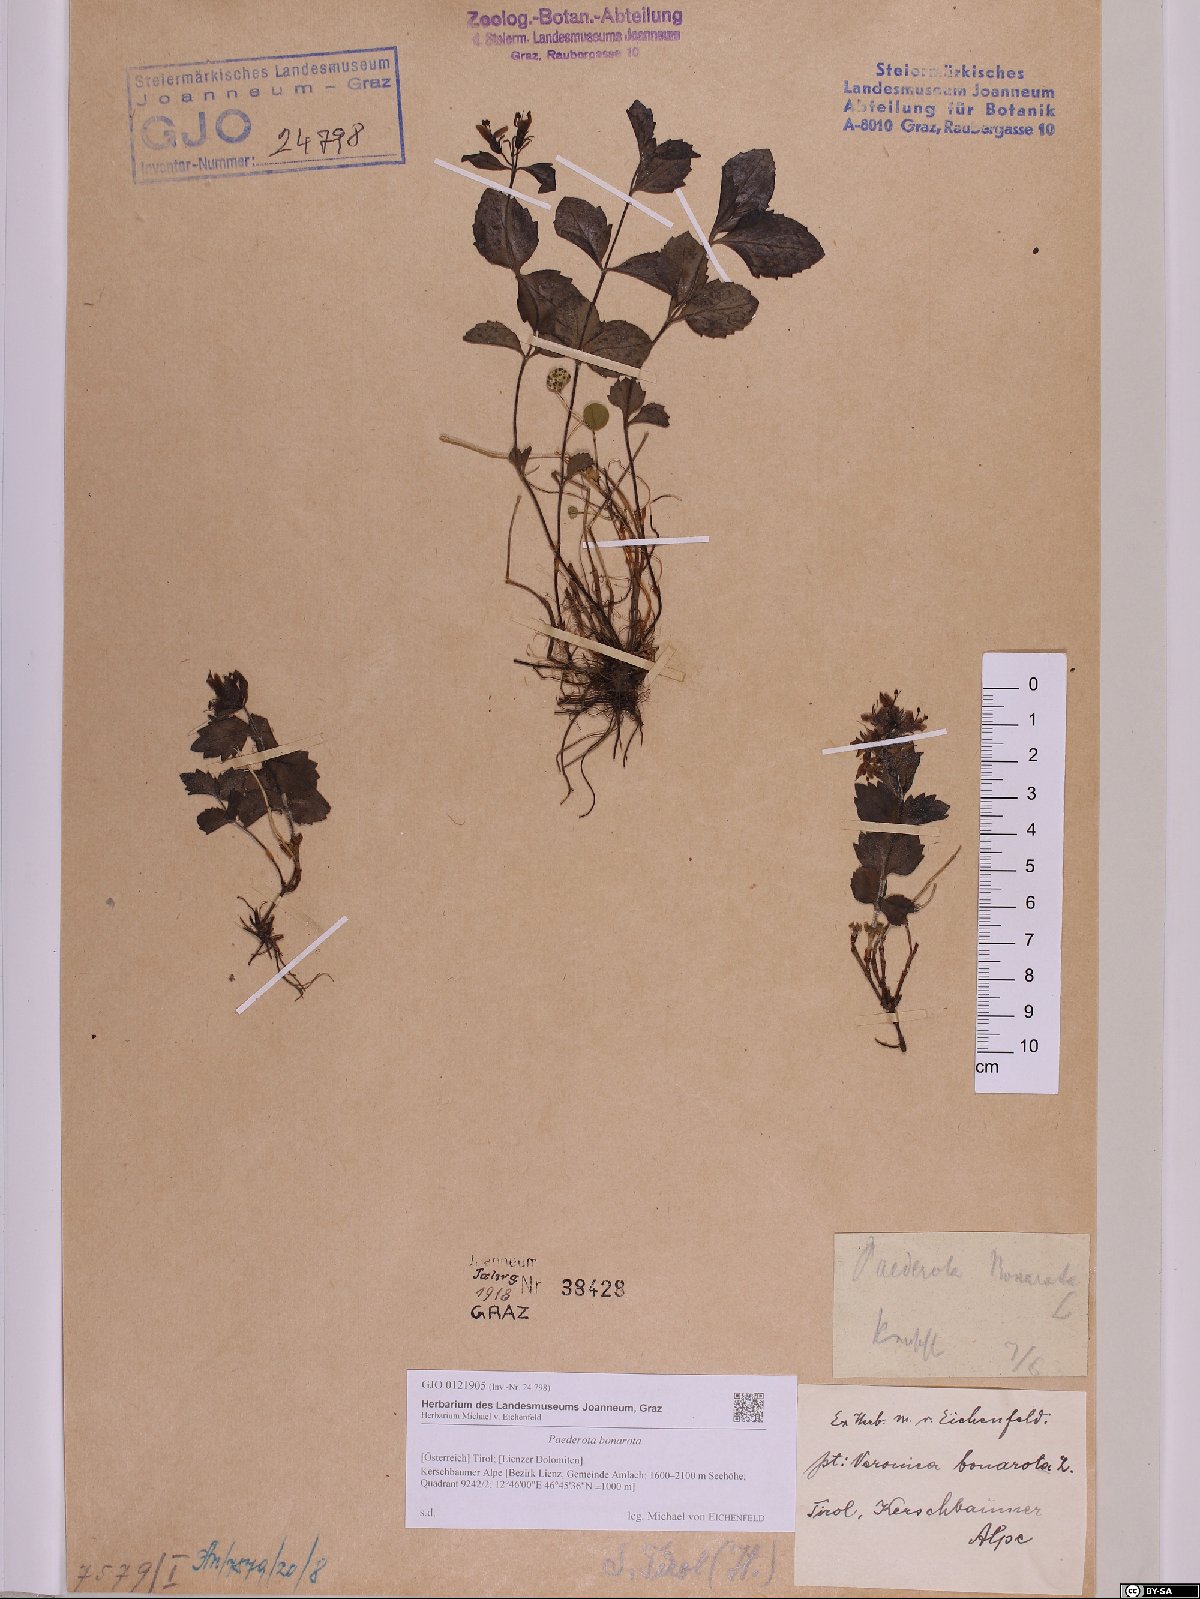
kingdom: Plantae
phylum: Tracheophyta
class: Magnoliopsida
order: Lamiales
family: Plantaginaceae
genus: Paederota
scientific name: Paederota bonarota
